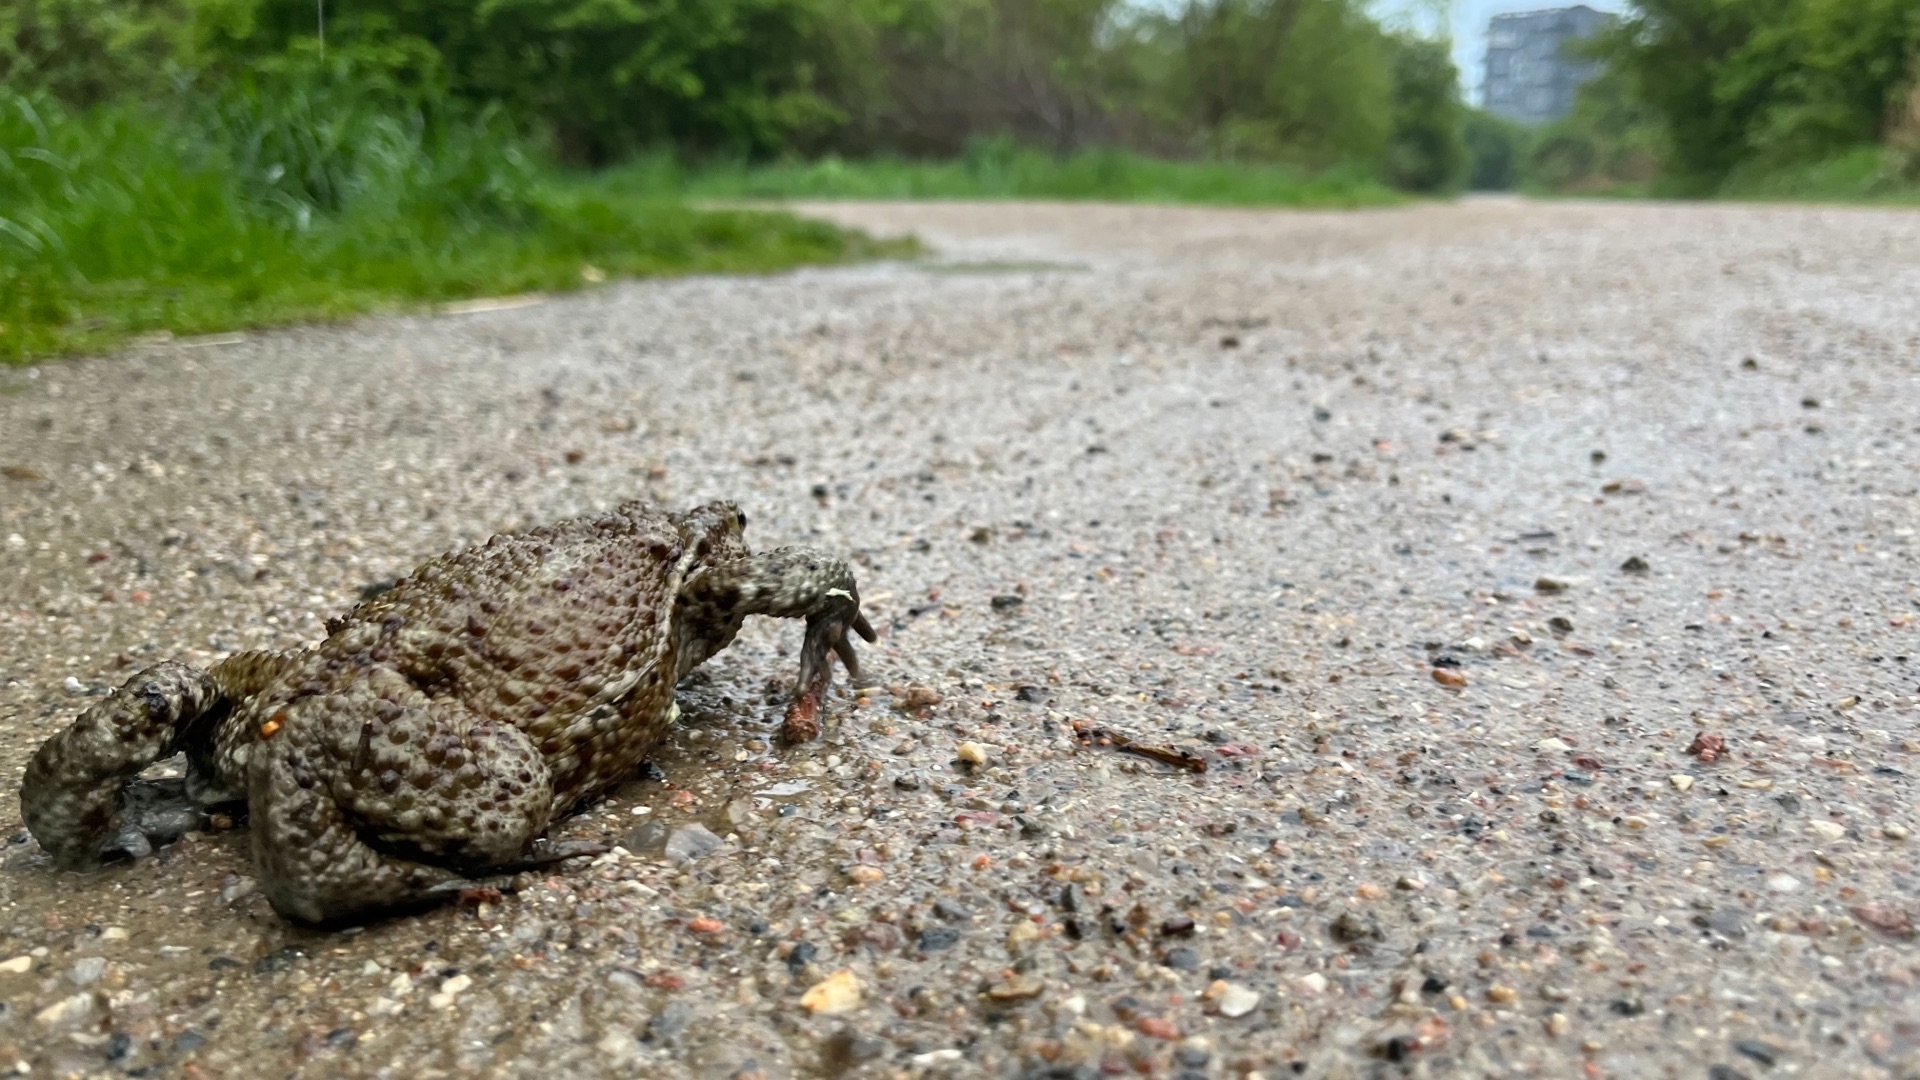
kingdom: Animalia
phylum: Chordata
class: Amphibia
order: Anura
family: Bufonidae
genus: Bufo
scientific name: Bufo bufo
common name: Skrubtudse
